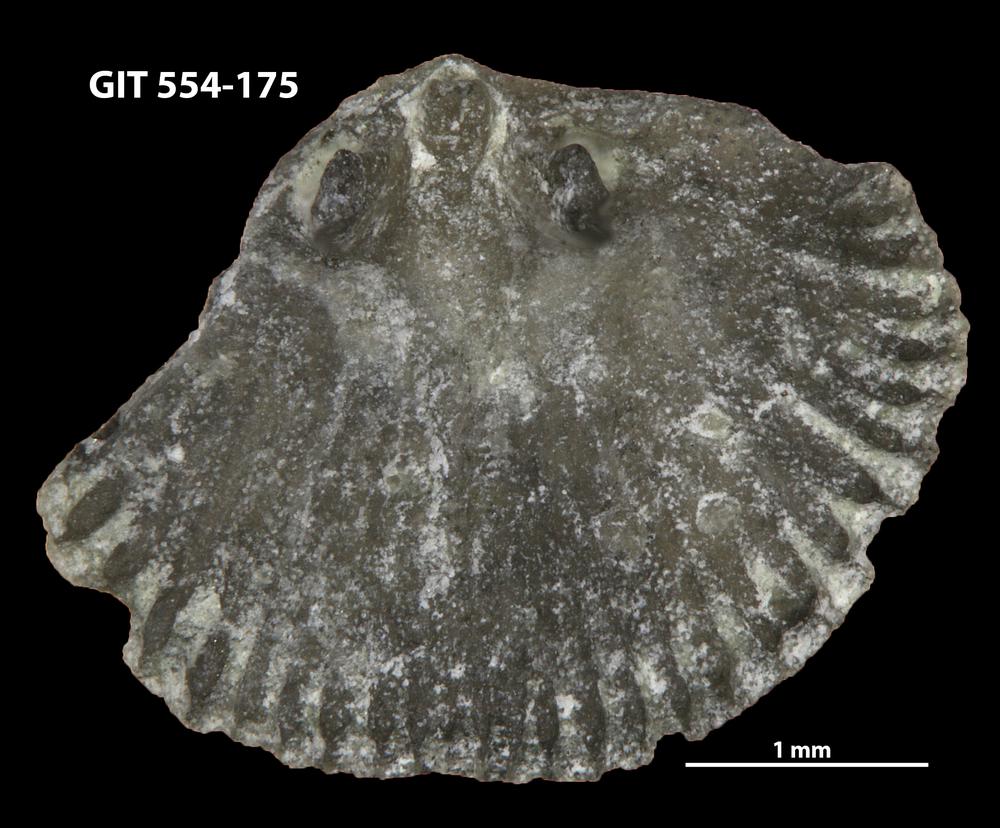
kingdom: Animalia
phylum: Brachiopoda
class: Rhynchonellata
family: Dalmanellidae
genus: Resserella
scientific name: Resserella sabrinae
